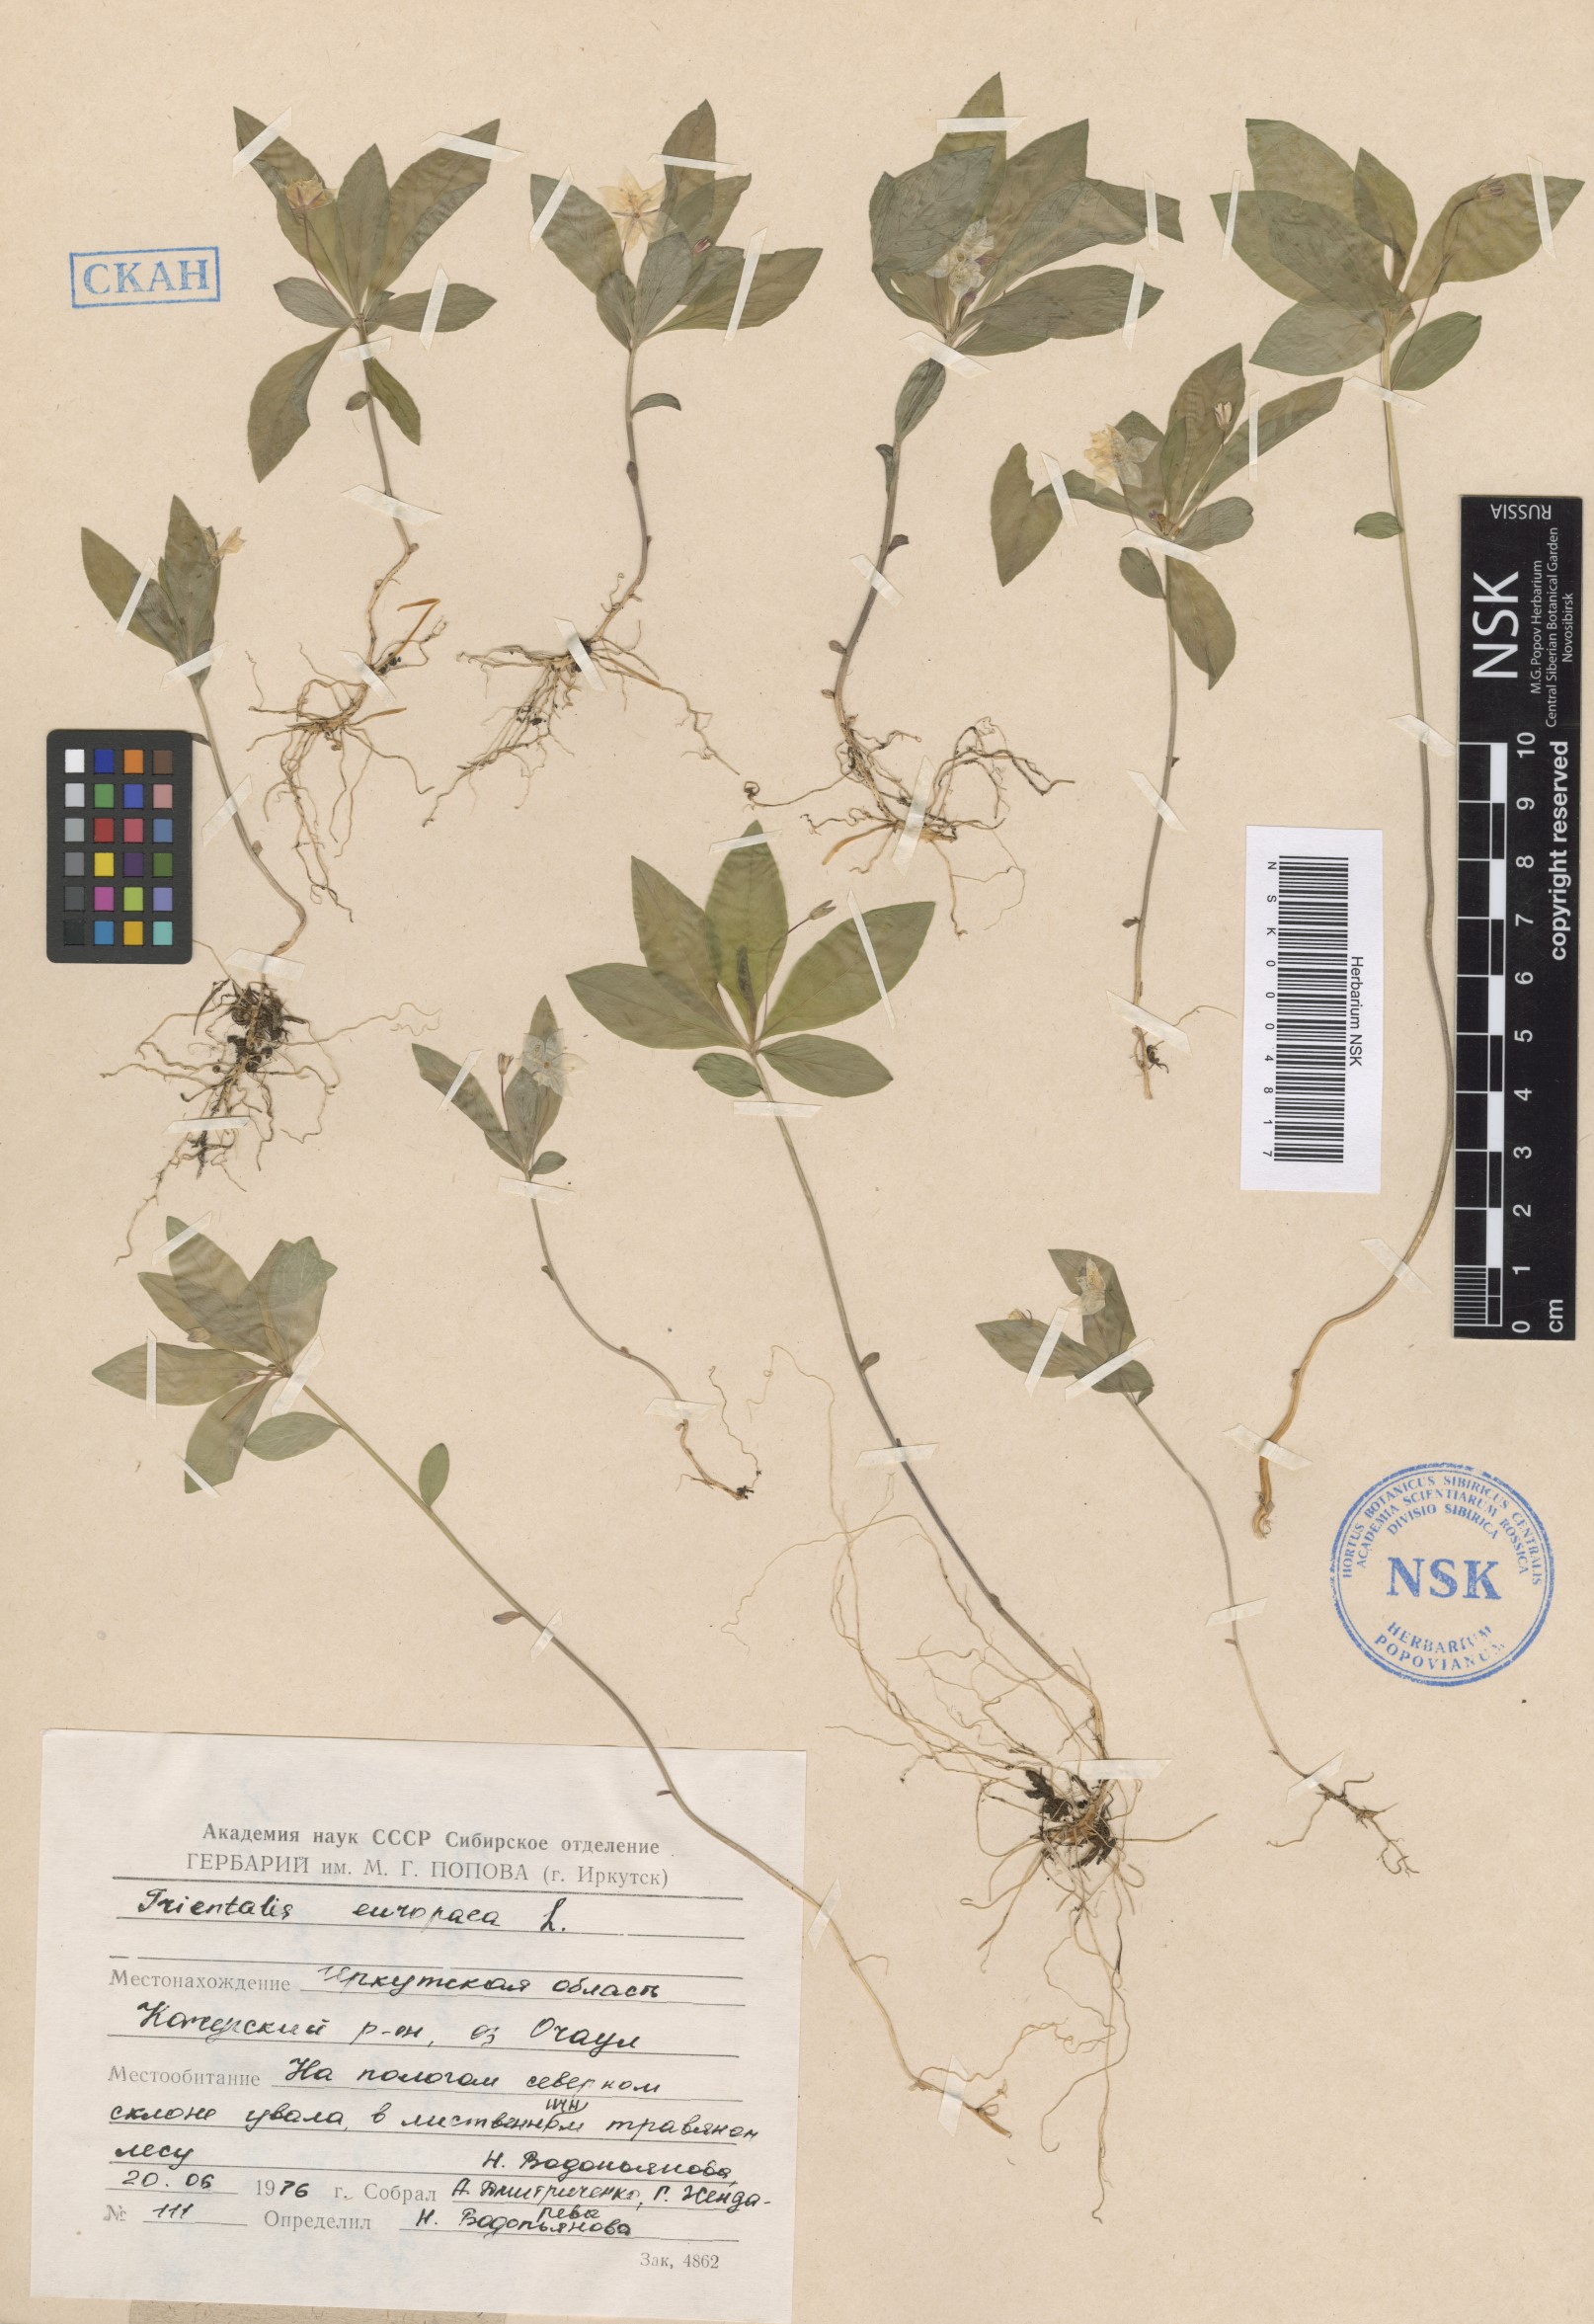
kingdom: Plantae
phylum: Tracheophyta
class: Magnoliopsida
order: Ericales
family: Primulaceae
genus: Lysimachia
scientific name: Lysimachia europaea
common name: Arctic starflower
